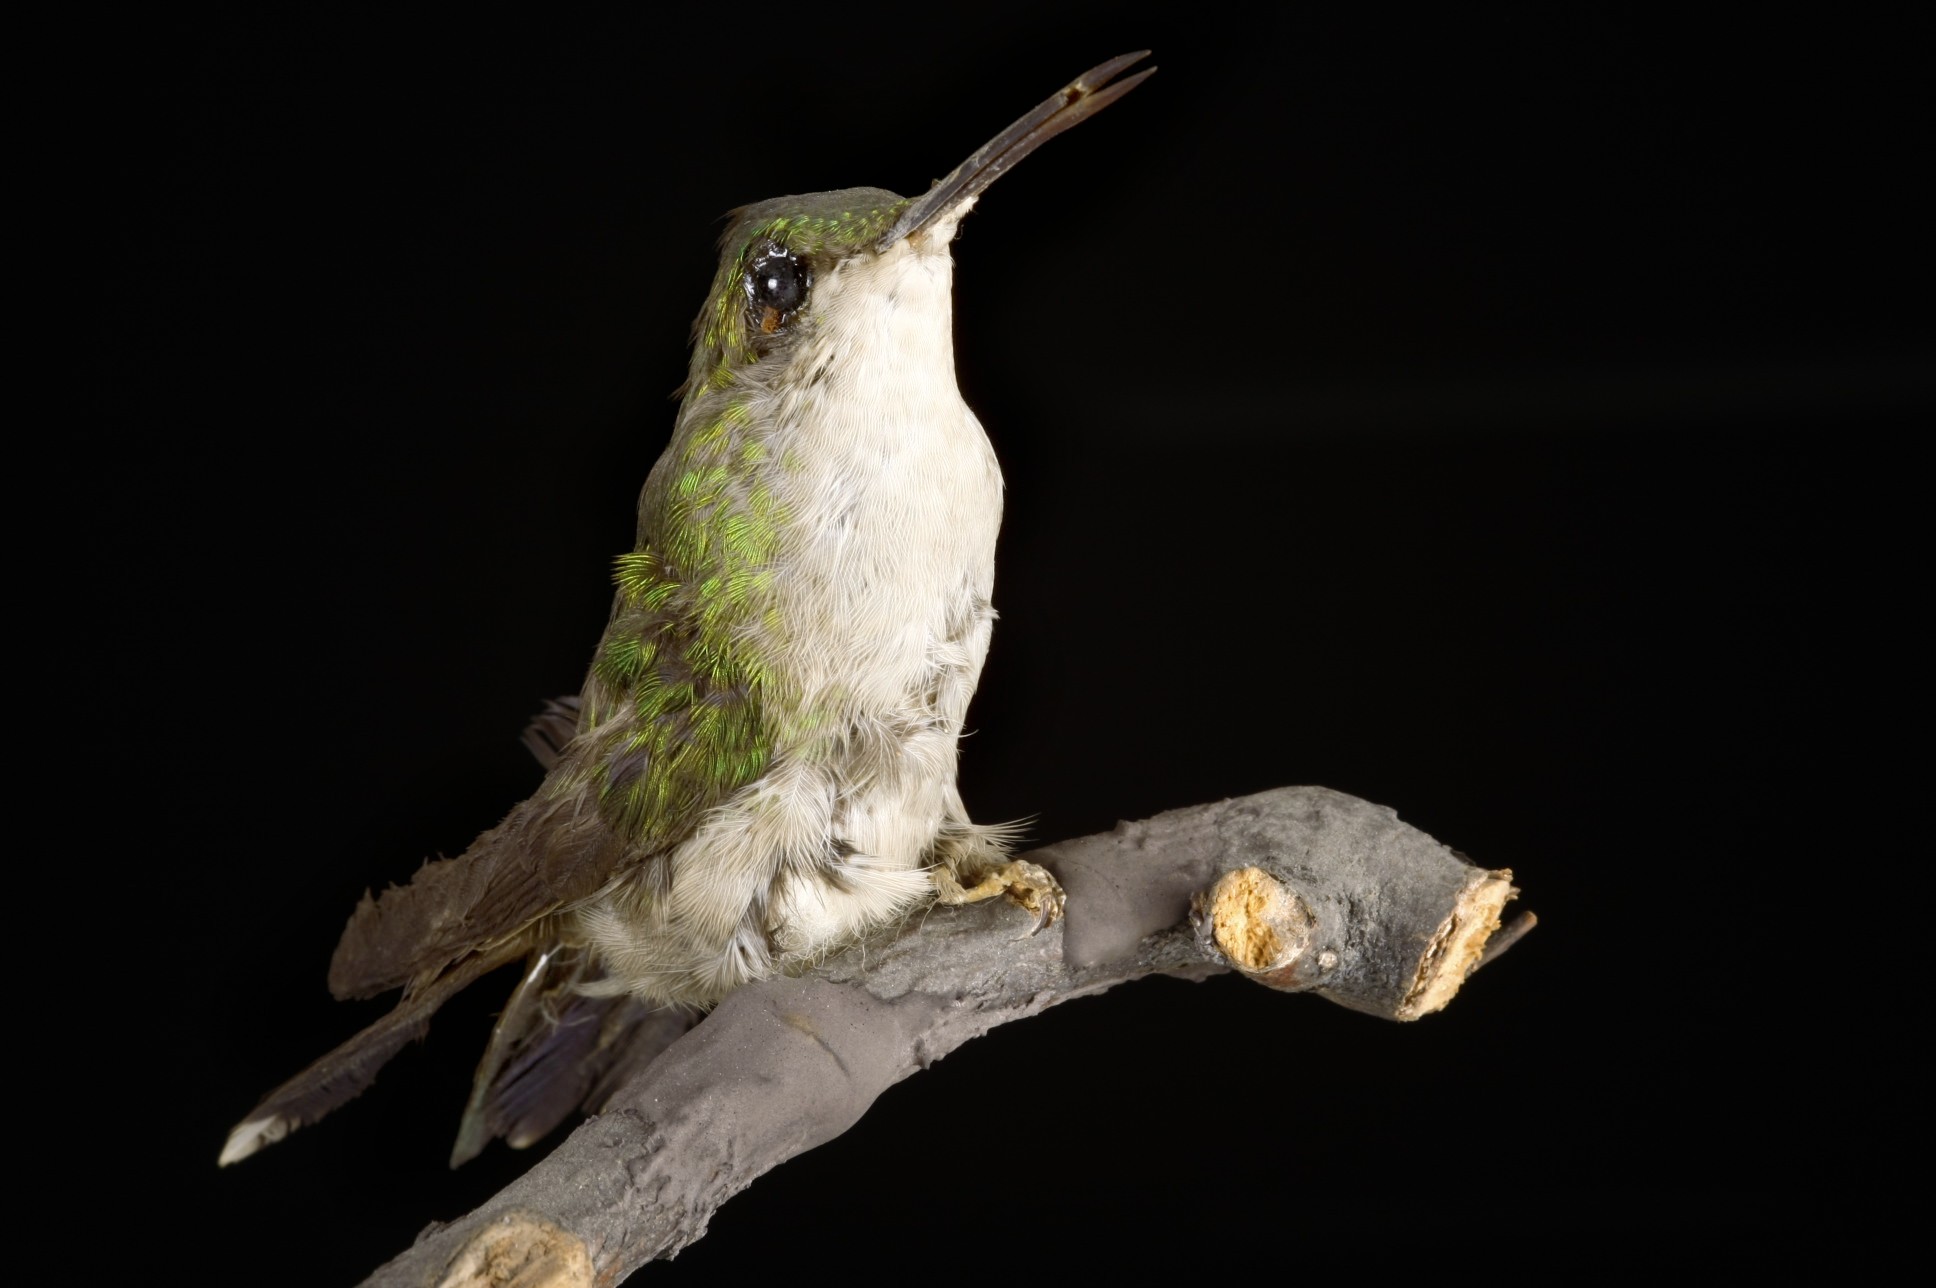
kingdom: Animalia
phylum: Chordata
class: Aves
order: Apodiformes
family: Trochilidae
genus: Thalurania
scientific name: Thalurania glaucopis
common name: Violet-capped woodnymph
